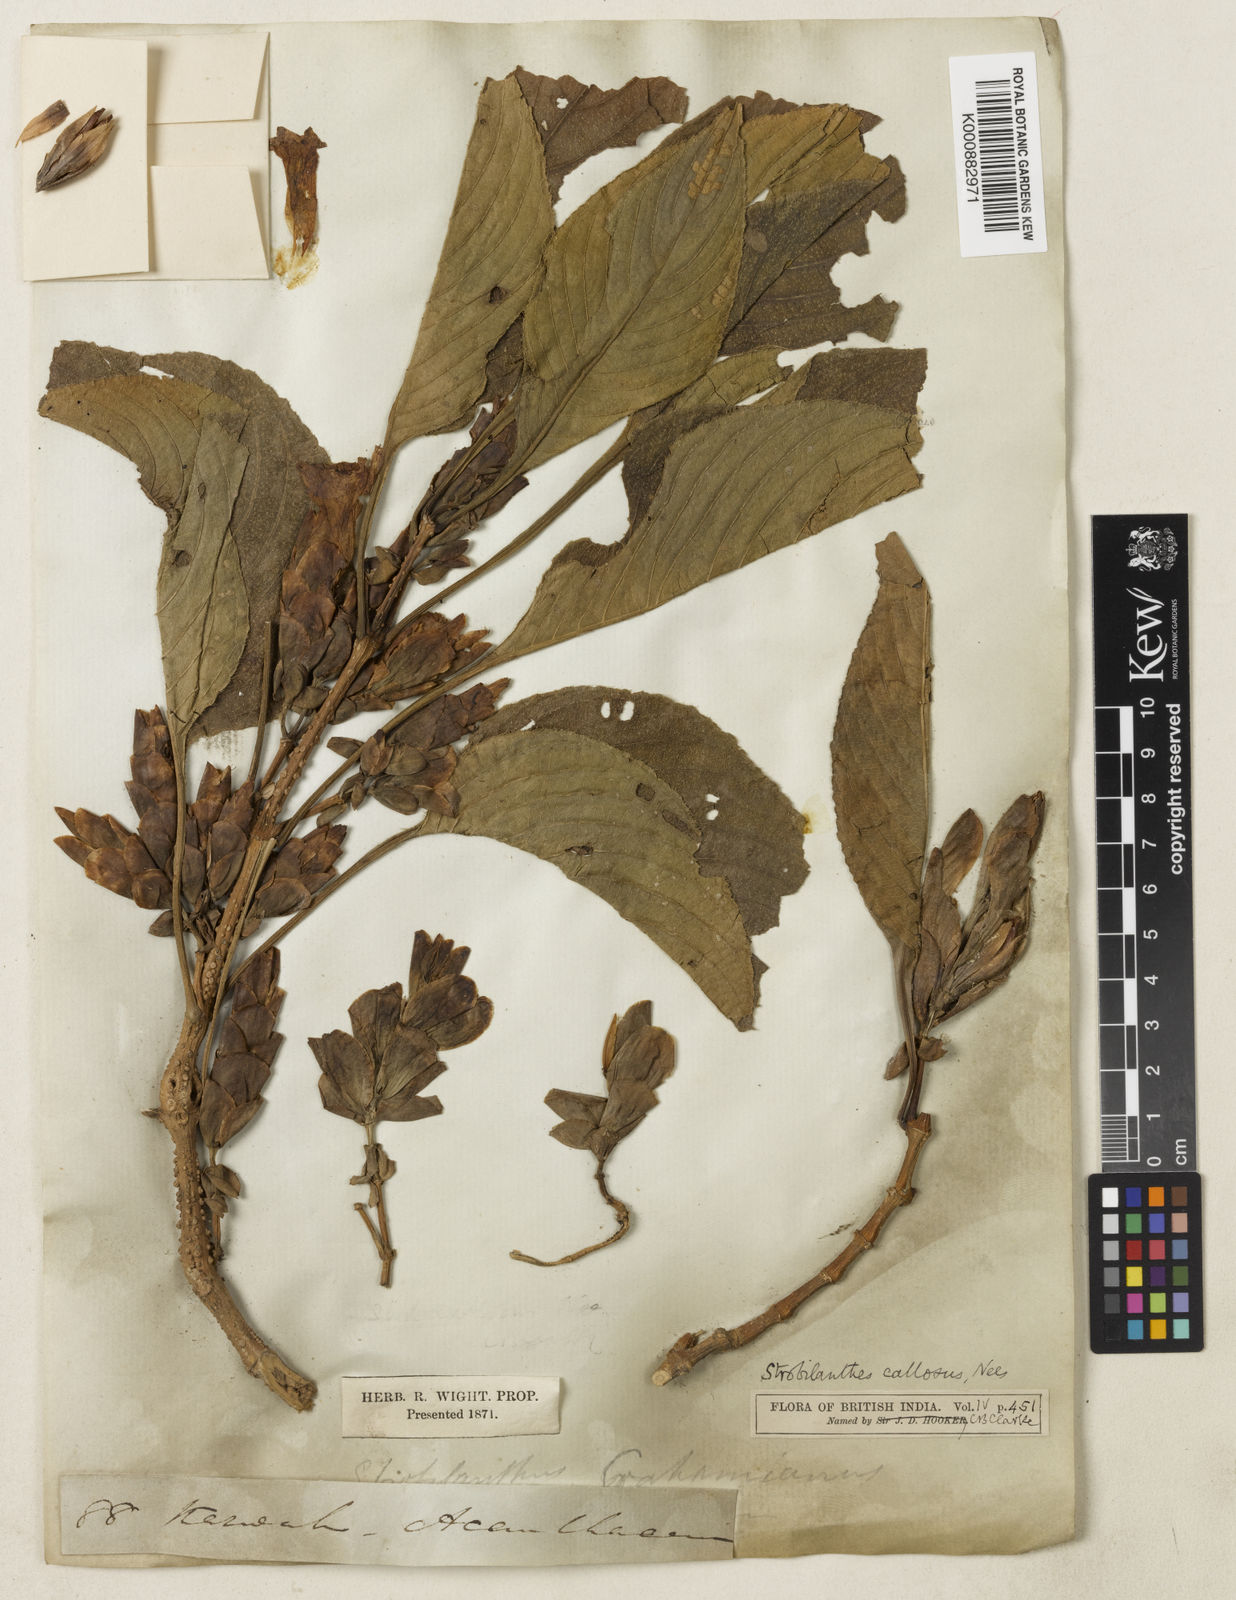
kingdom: Plantae
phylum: Tracheophyta
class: Magnoliopsida
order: Lamiales
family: Acanthaceae
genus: Strobilanthes
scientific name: Strobilanthes callosa
